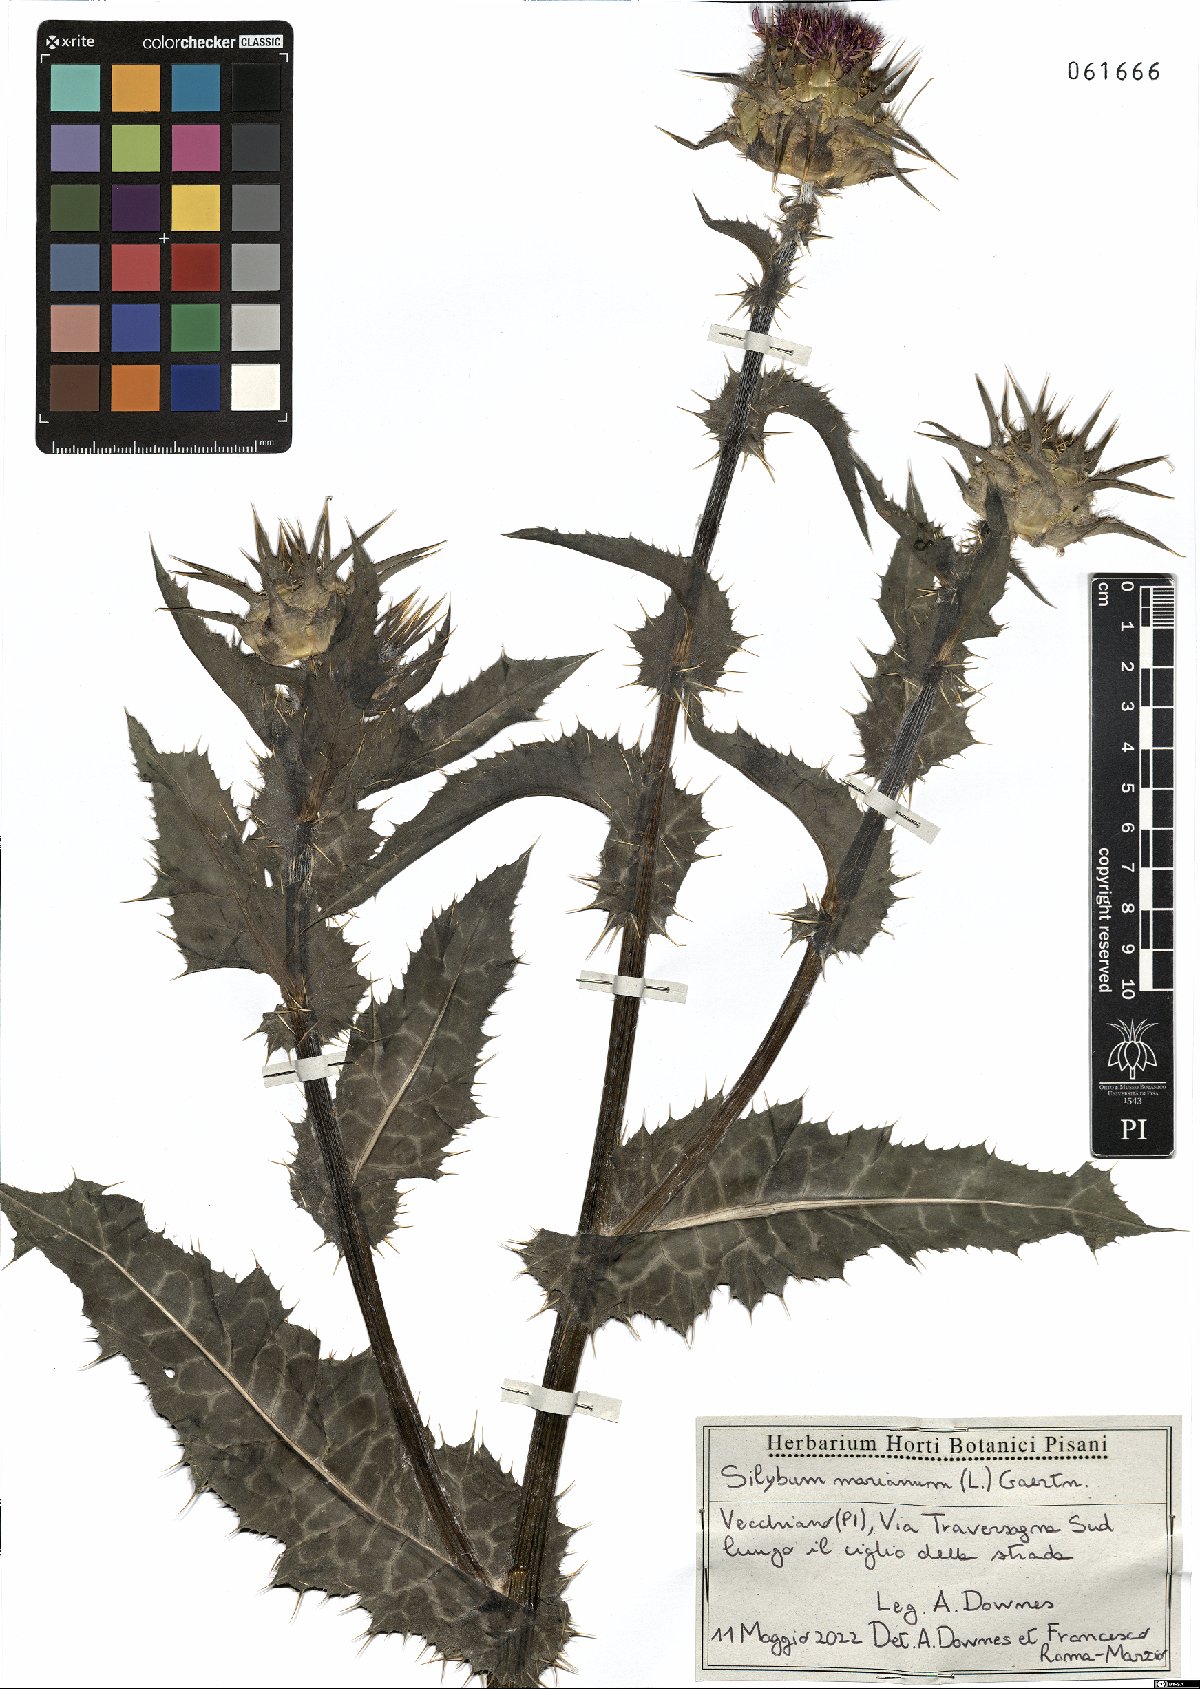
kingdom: Plantae
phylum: Tracheophyta
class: Magnoliopsida
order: Asterales
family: Asteraceae
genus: Silybum
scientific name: Silybum marianum
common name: Milk thistle
